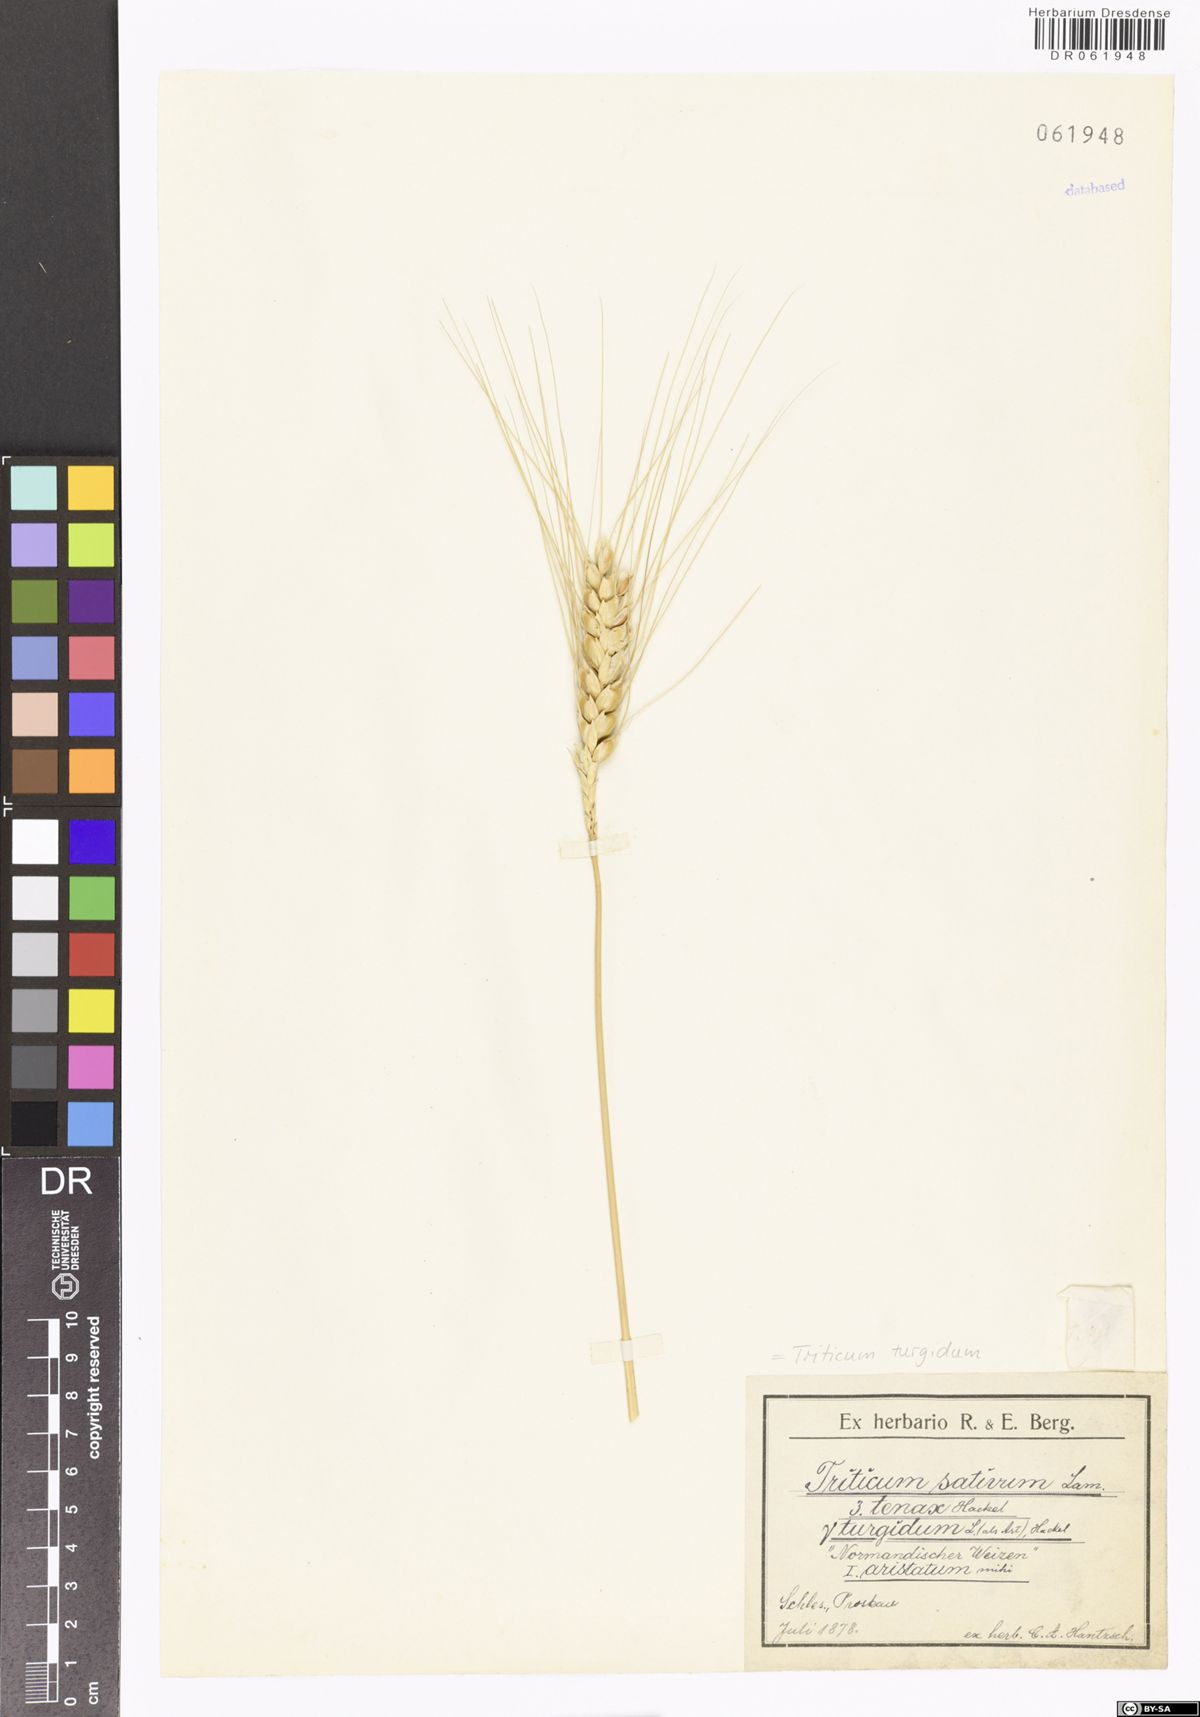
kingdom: Plantae
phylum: Tracheophyta
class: Liliopsida
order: Poales
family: Poaceae
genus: Triticum
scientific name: Triticum turgidum
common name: Rivet wheat
